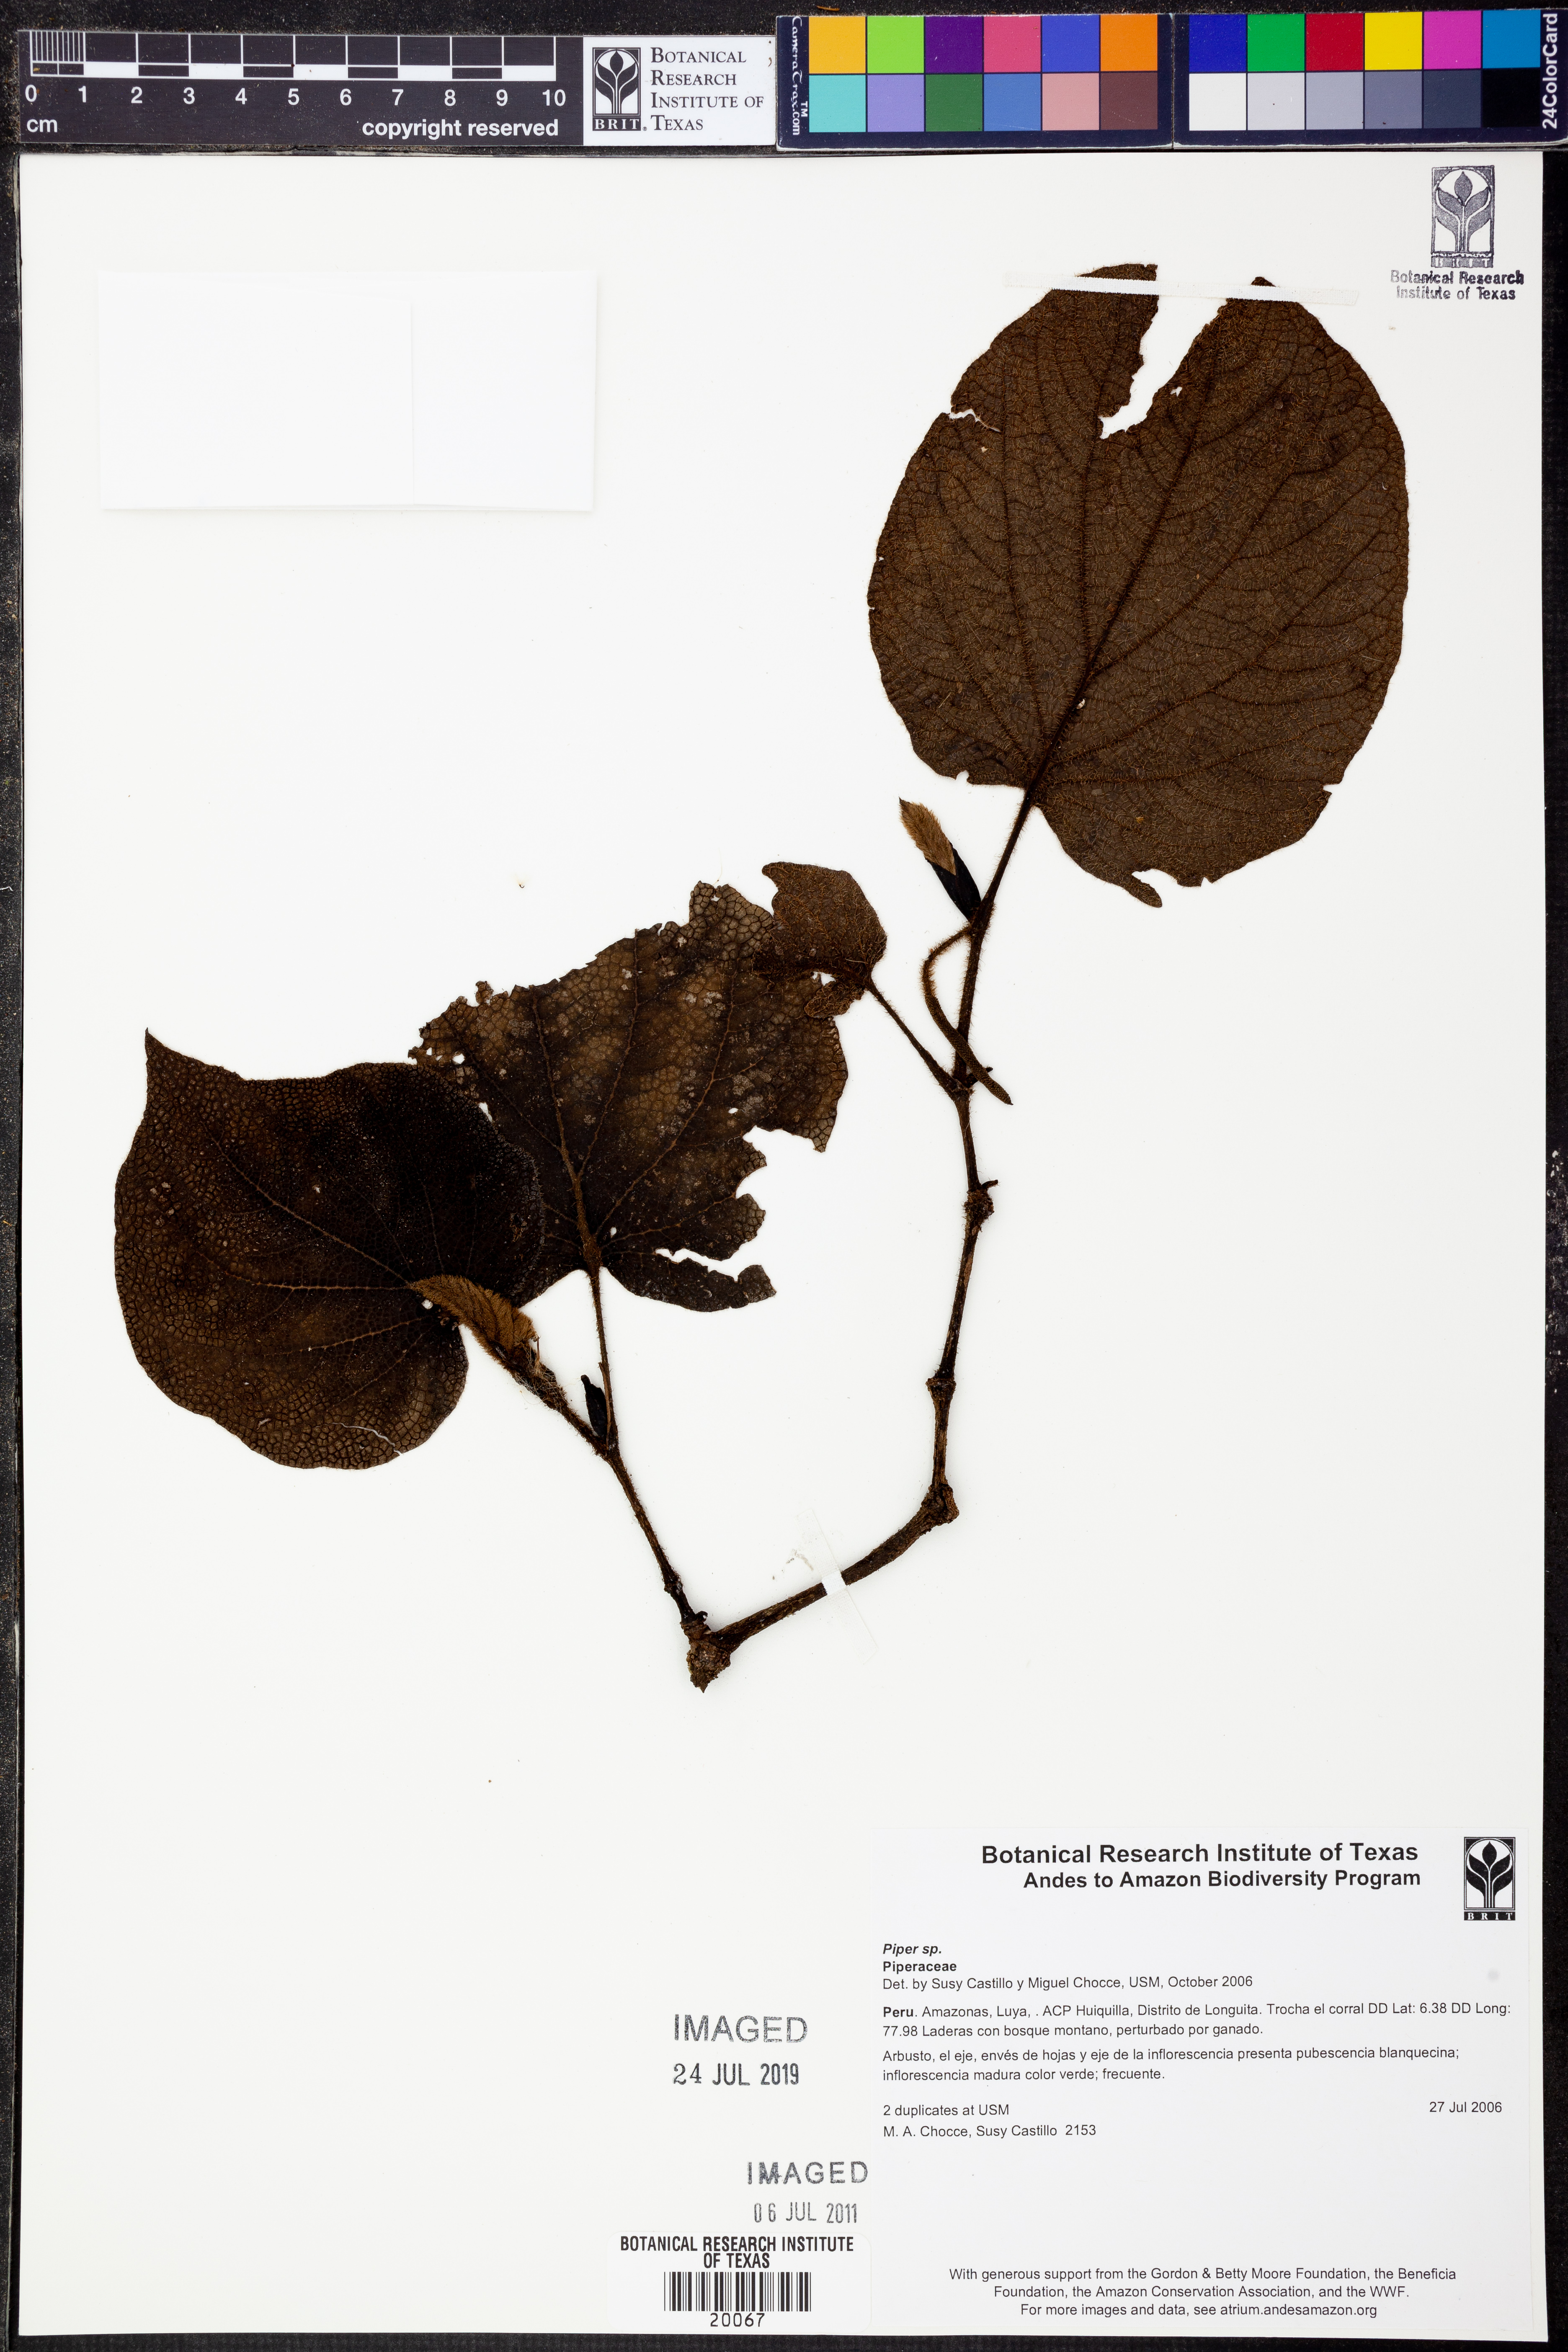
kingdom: Plantae
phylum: Tracheophyta
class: Magnoliopsida
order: Piperales
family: Piperaceae
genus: Piper
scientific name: Piper
